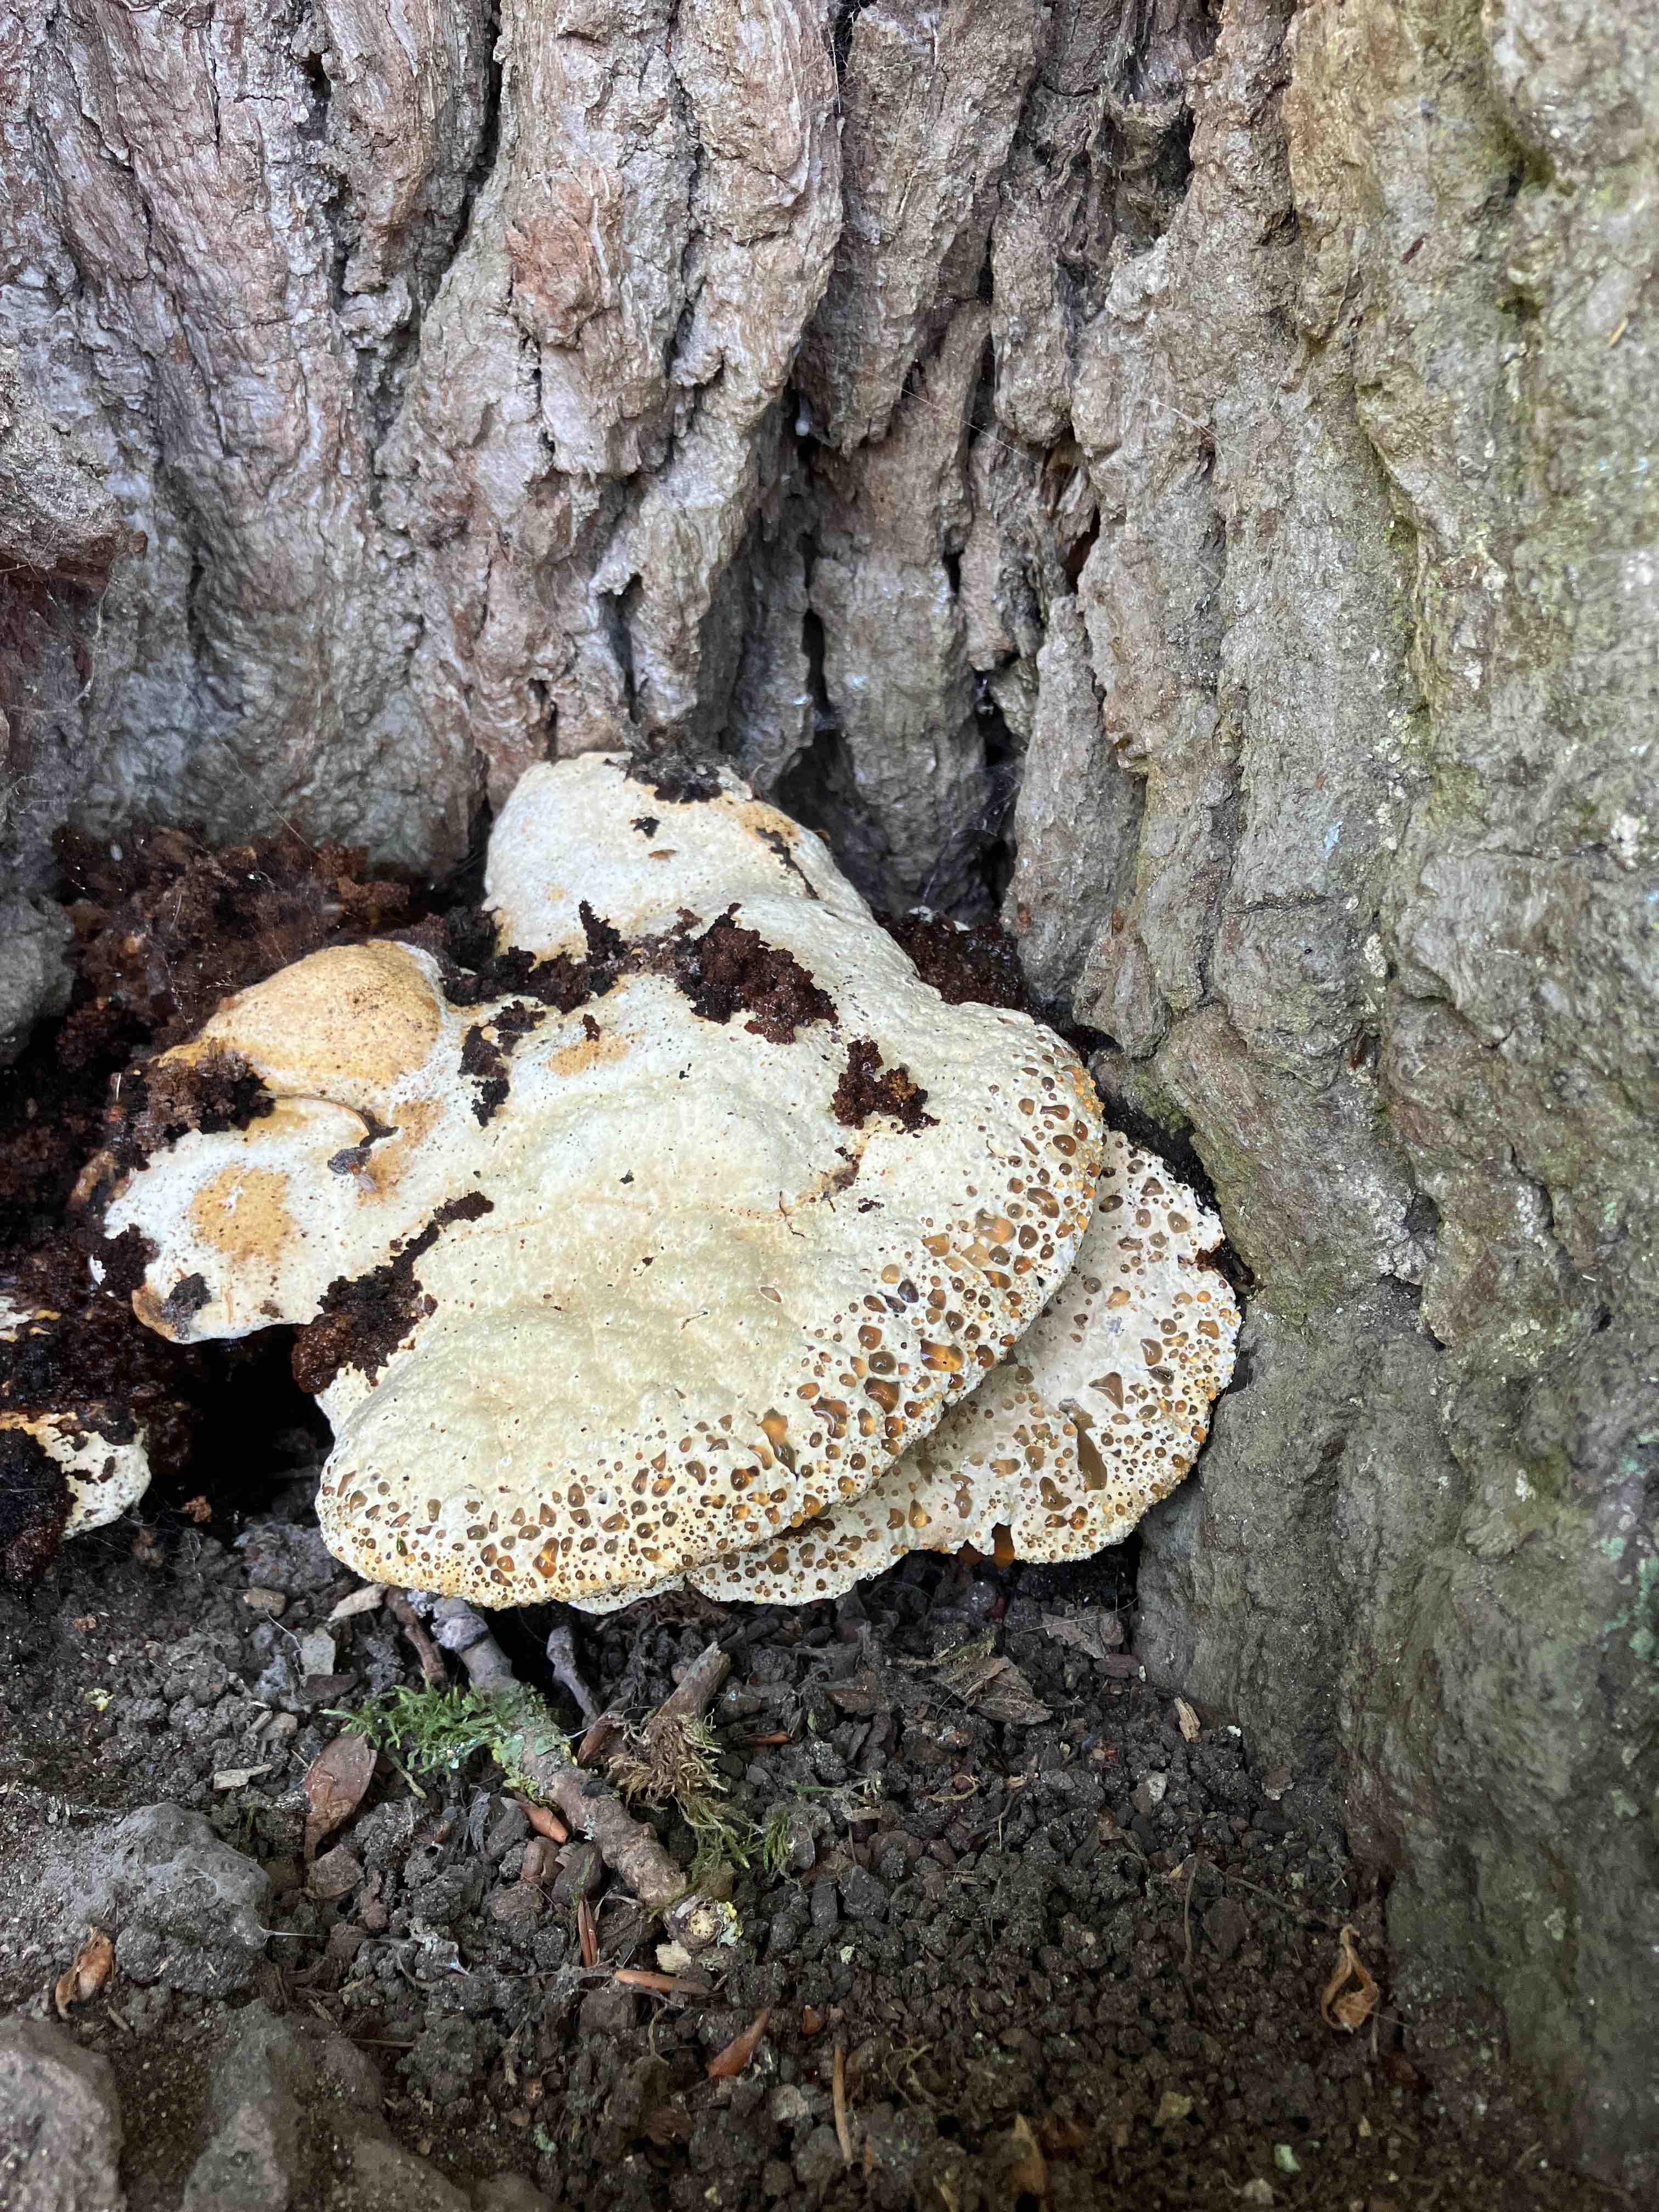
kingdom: Fungi
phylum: Basidiomycota
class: Agaricomycetes
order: Hymenochaetales
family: Hymenochaetaceae
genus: Pseudoinonotus
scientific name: Pseudoinonotus dryadeus
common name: ege-spejlporesvamp
